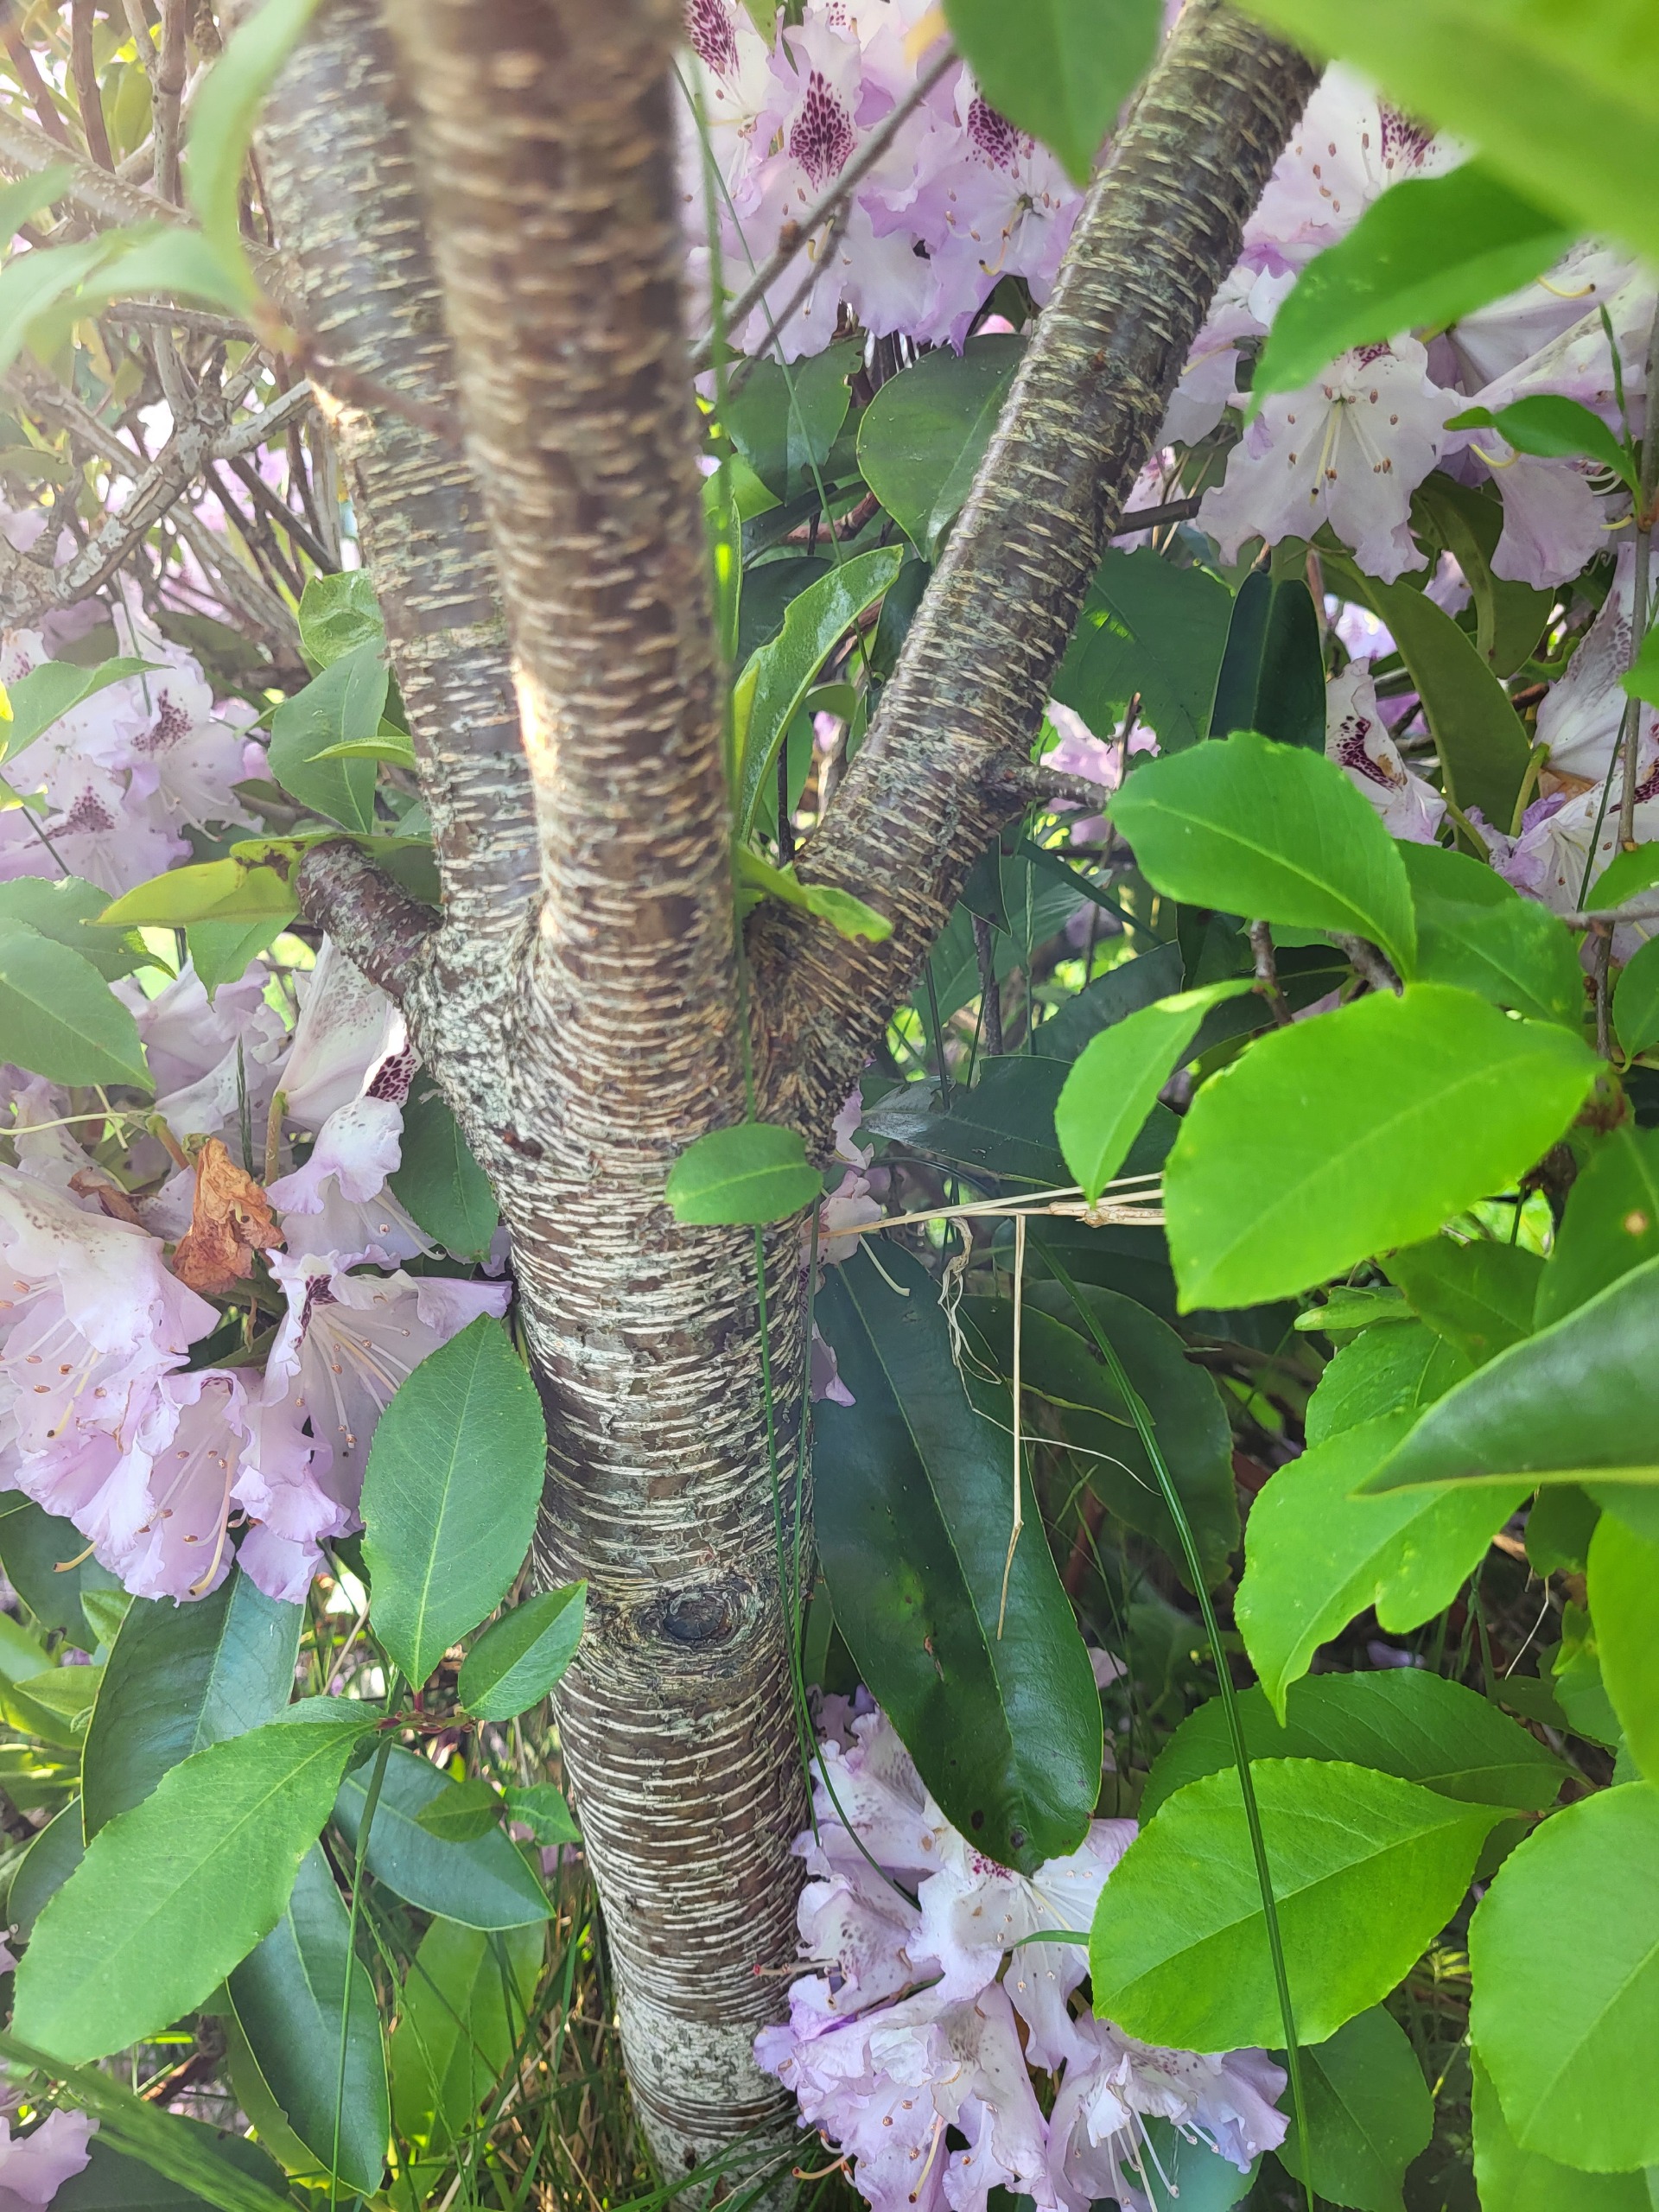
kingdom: Plantae
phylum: Tracheophyta
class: Magnoliopsida
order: Rosales
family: Rosaceae
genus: Prunus
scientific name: Prunus serotina
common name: Glansbladet hæg
